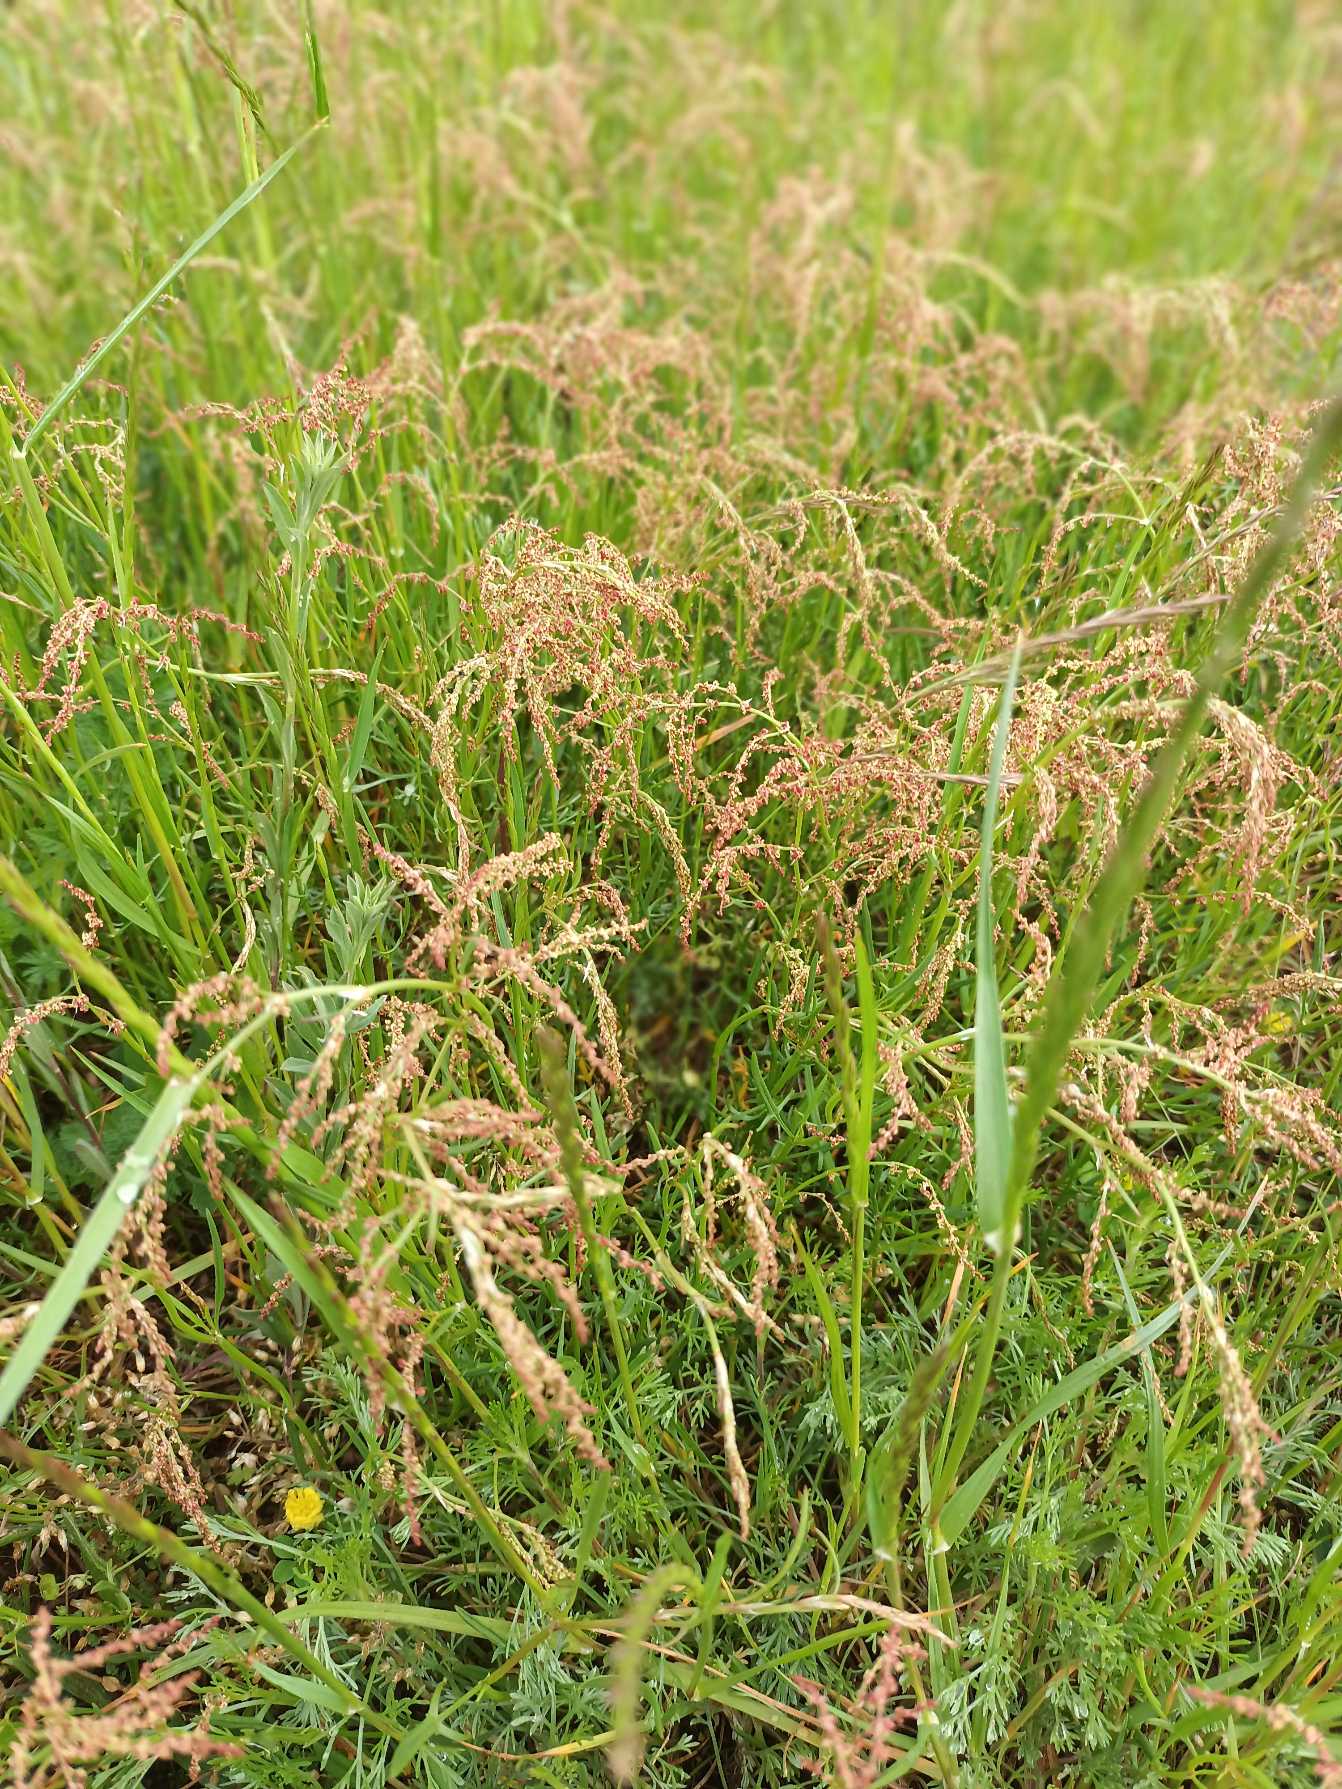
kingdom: Plantae
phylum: Tracheophyta
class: Magnoliopsida
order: Caryophyllales
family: Polygonaceae
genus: Rumex
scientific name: Rumex acetosella
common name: Rødknæ
